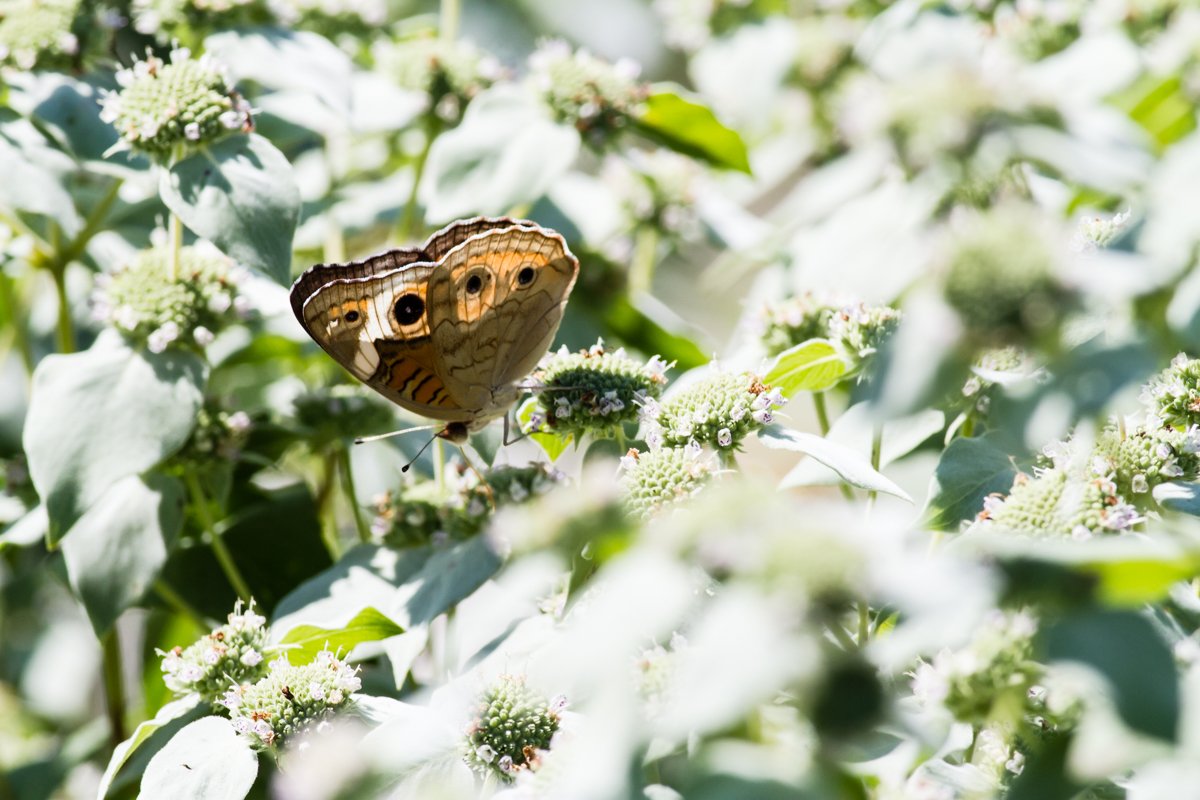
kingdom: Animalia
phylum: Arthropoda
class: Insecta
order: Lepidoptera
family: Nymphalidae
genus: Junonia
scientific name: Junonia coenia
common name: Common Buckeye
